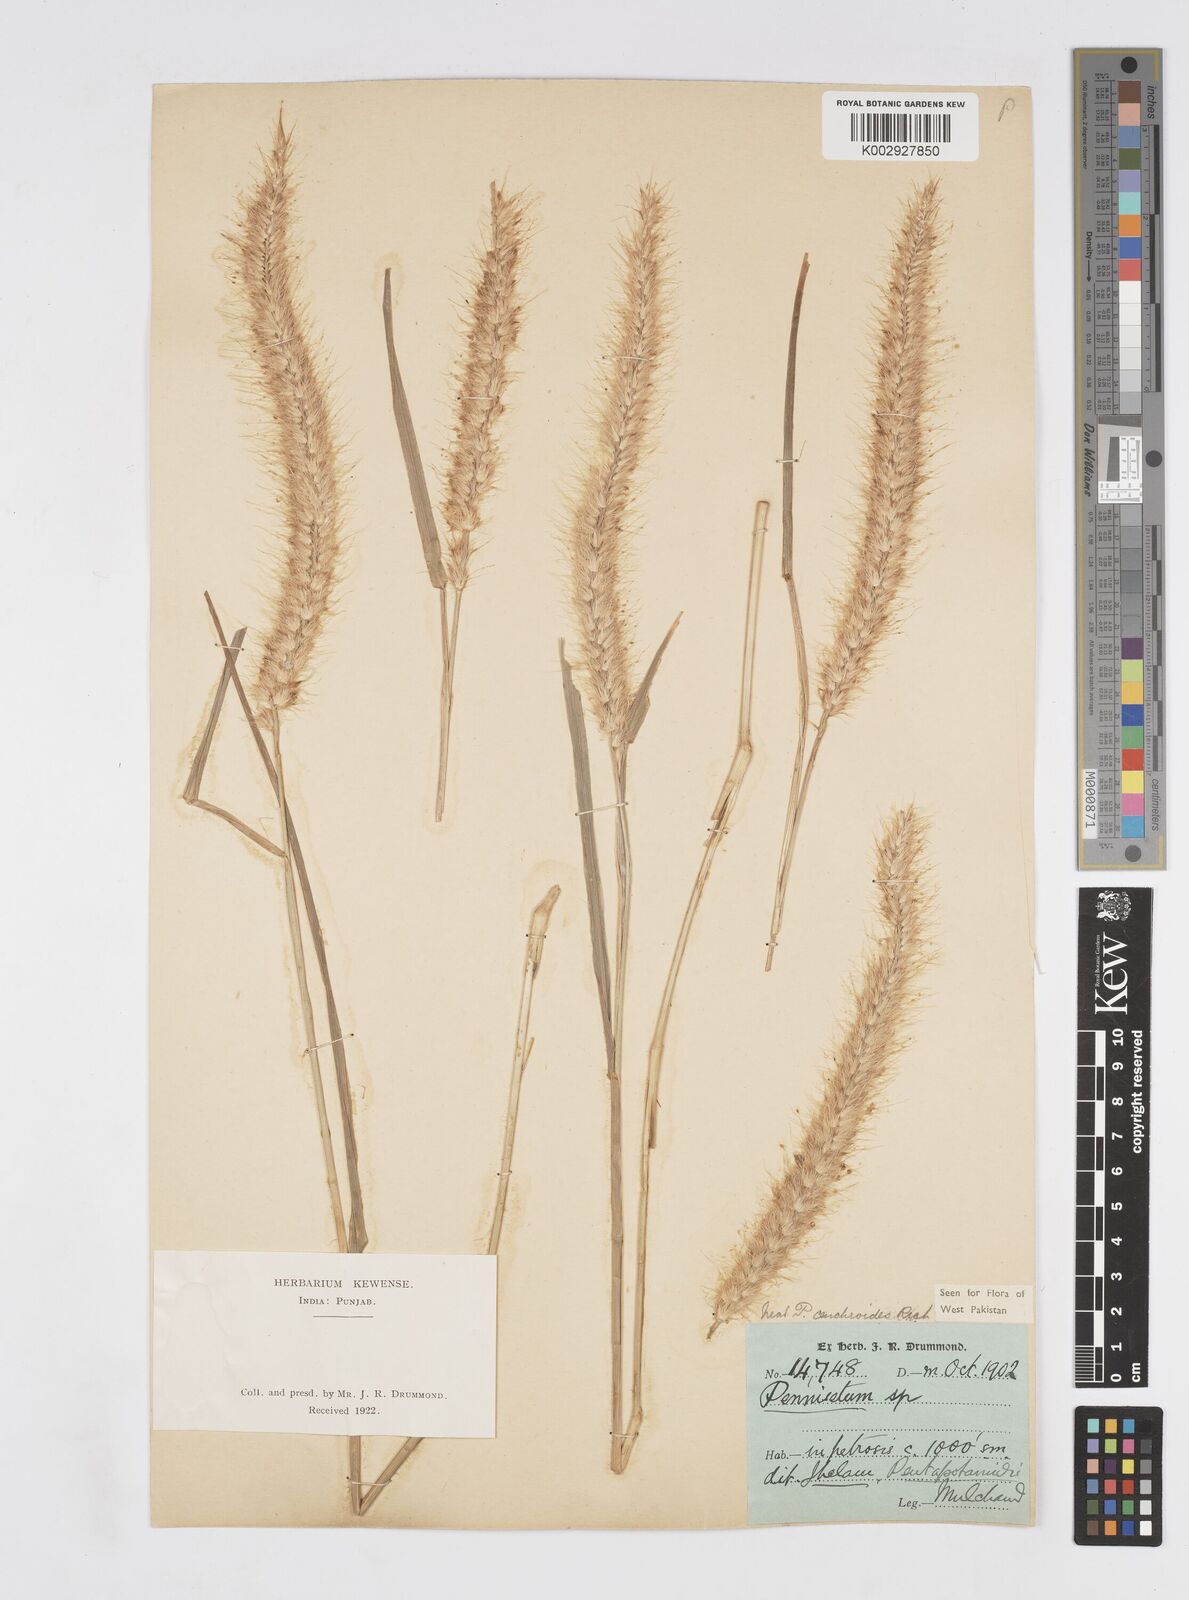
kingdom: Plantae
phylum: Tracheophyta
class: Liliopsida
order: Poales
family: Poaceae
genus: Cenchrus
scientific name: Cenchrus ciliaris
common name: Buffelgrass
